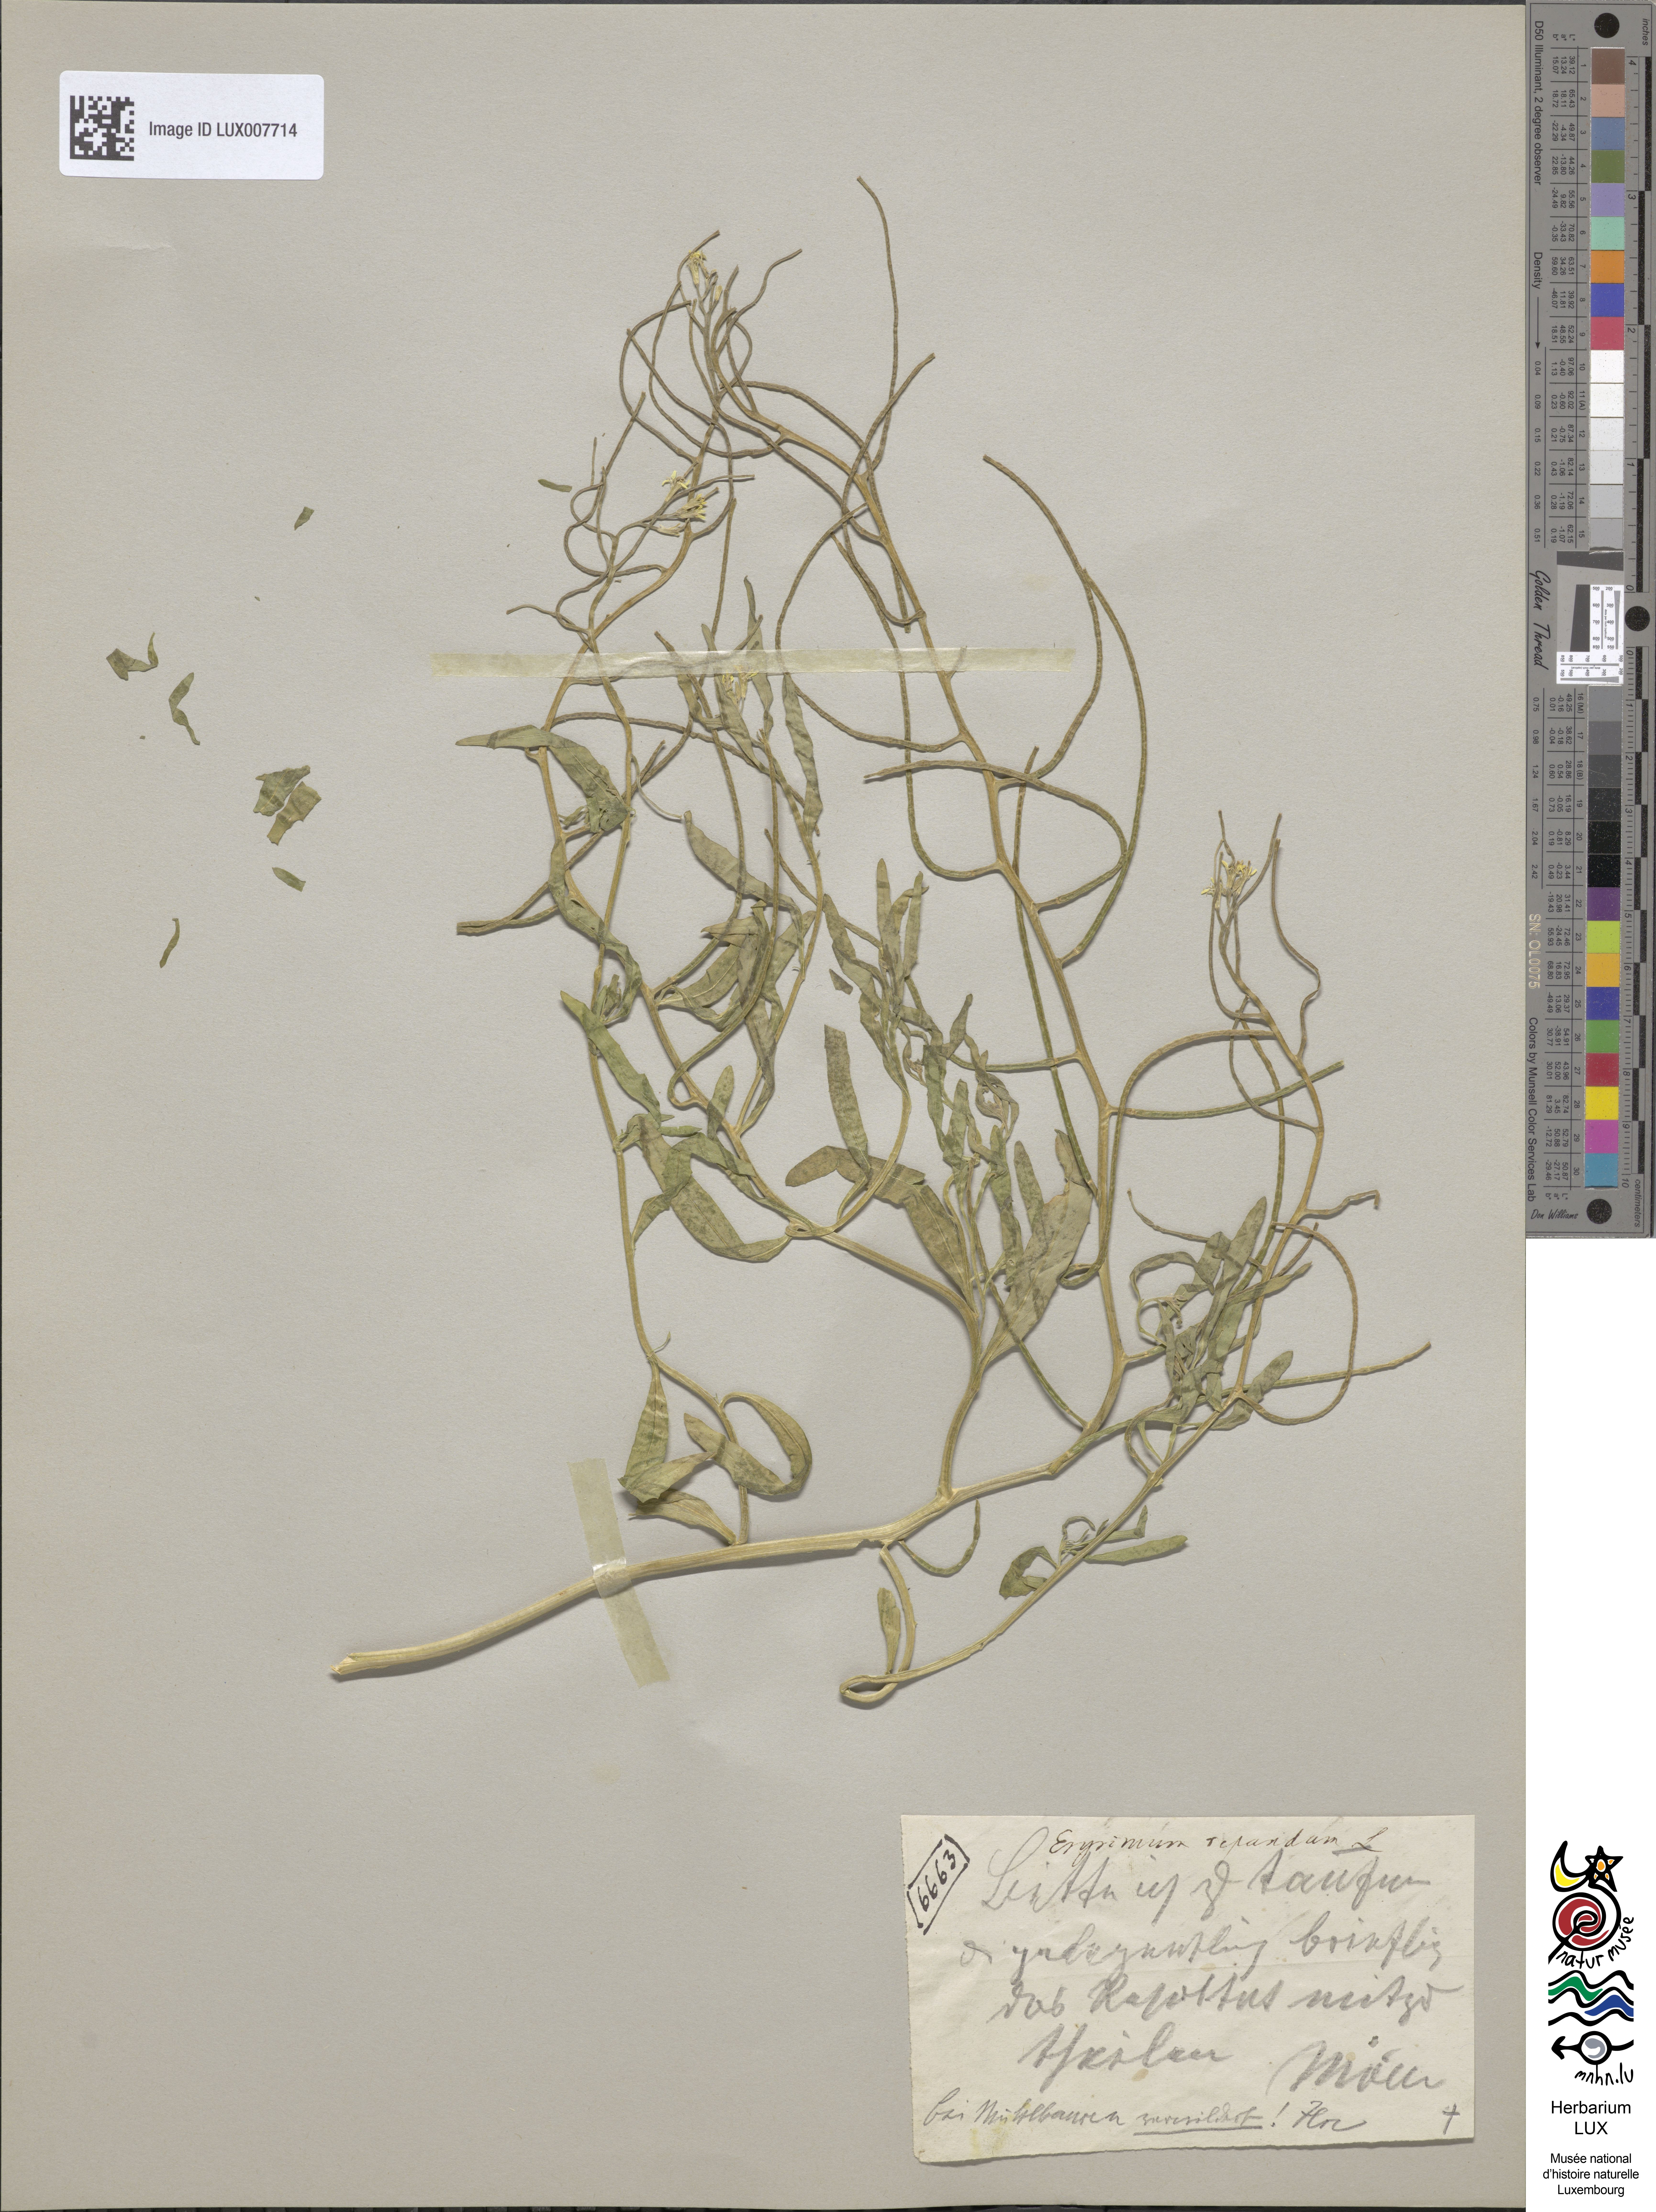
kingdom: Plantae
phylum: Tracheophyta
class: Magnoliopsida
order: Brassicales
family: Brassicaceae
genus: Erysimum
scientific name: Erysimum repandum
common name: Spreading wallflower
